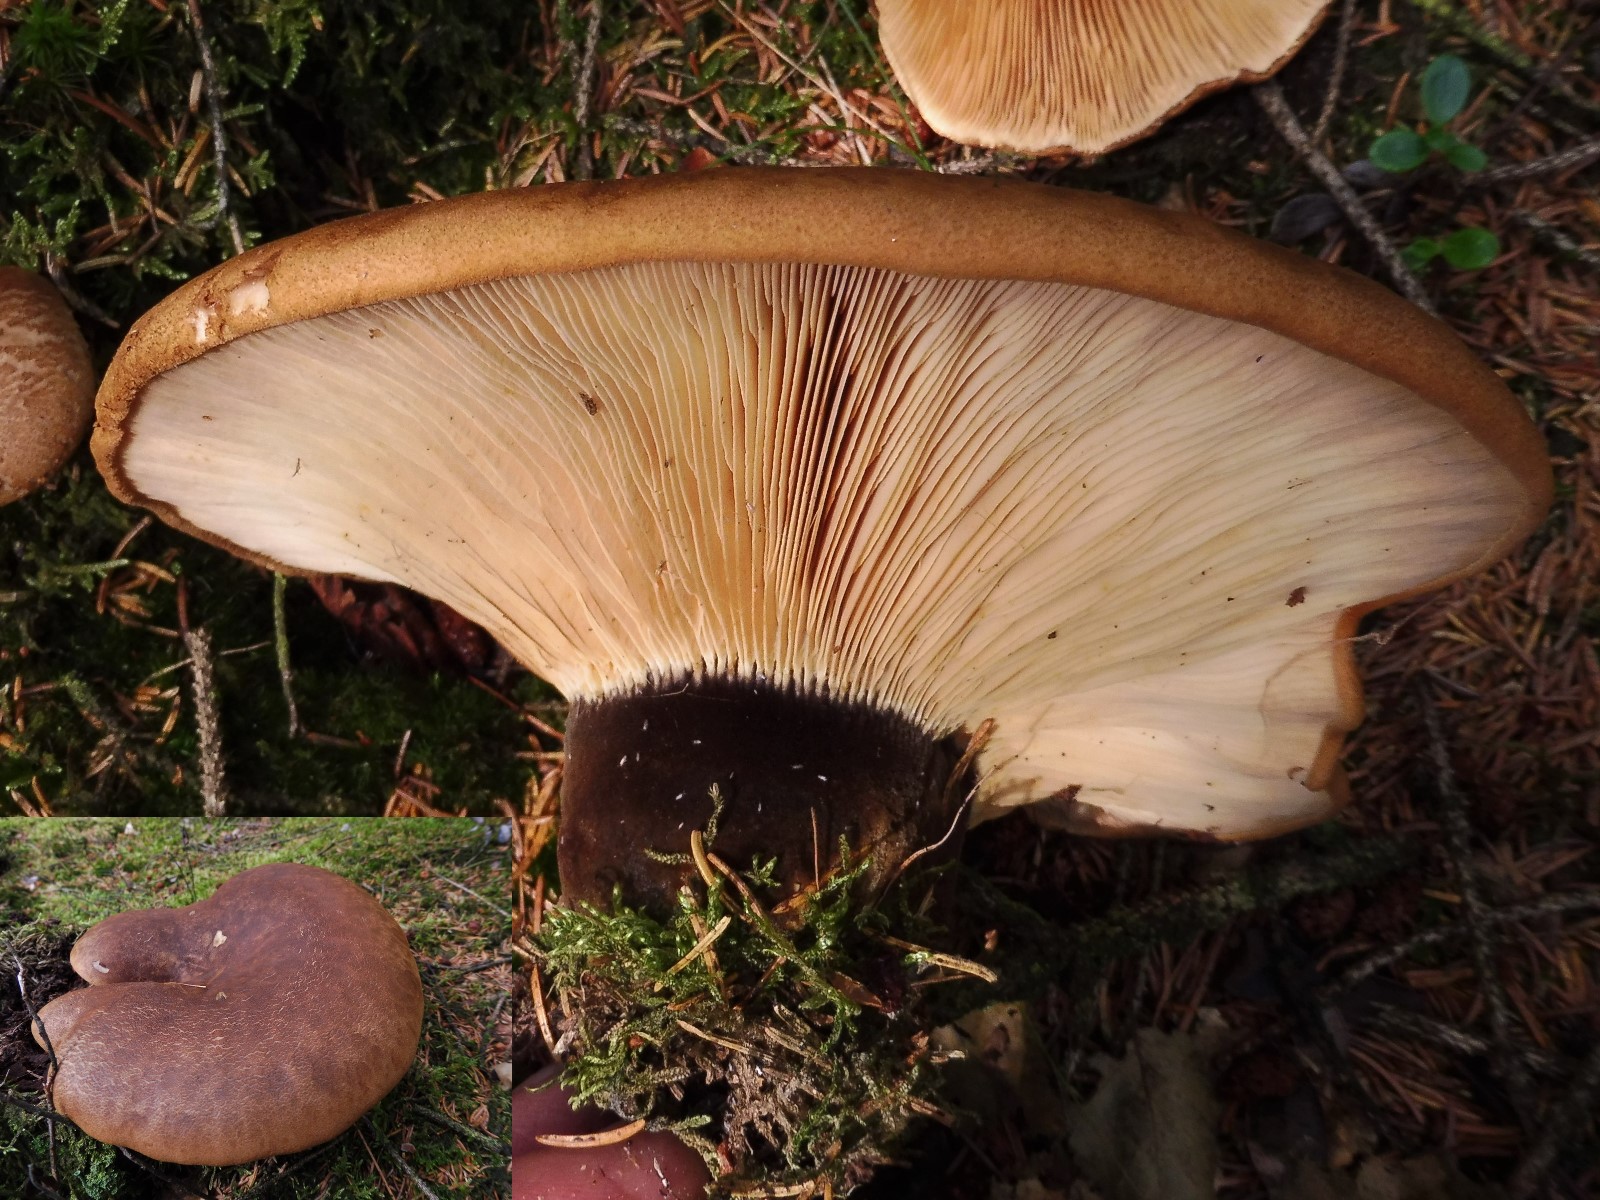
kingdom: Fungi
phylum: Basidiomycota
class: Agaricomycetes
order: Boletales
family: Tapinellaceae
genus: Tapinella
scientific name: Tapinella atrotomentosa
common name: sortfiltet viftesvamp
